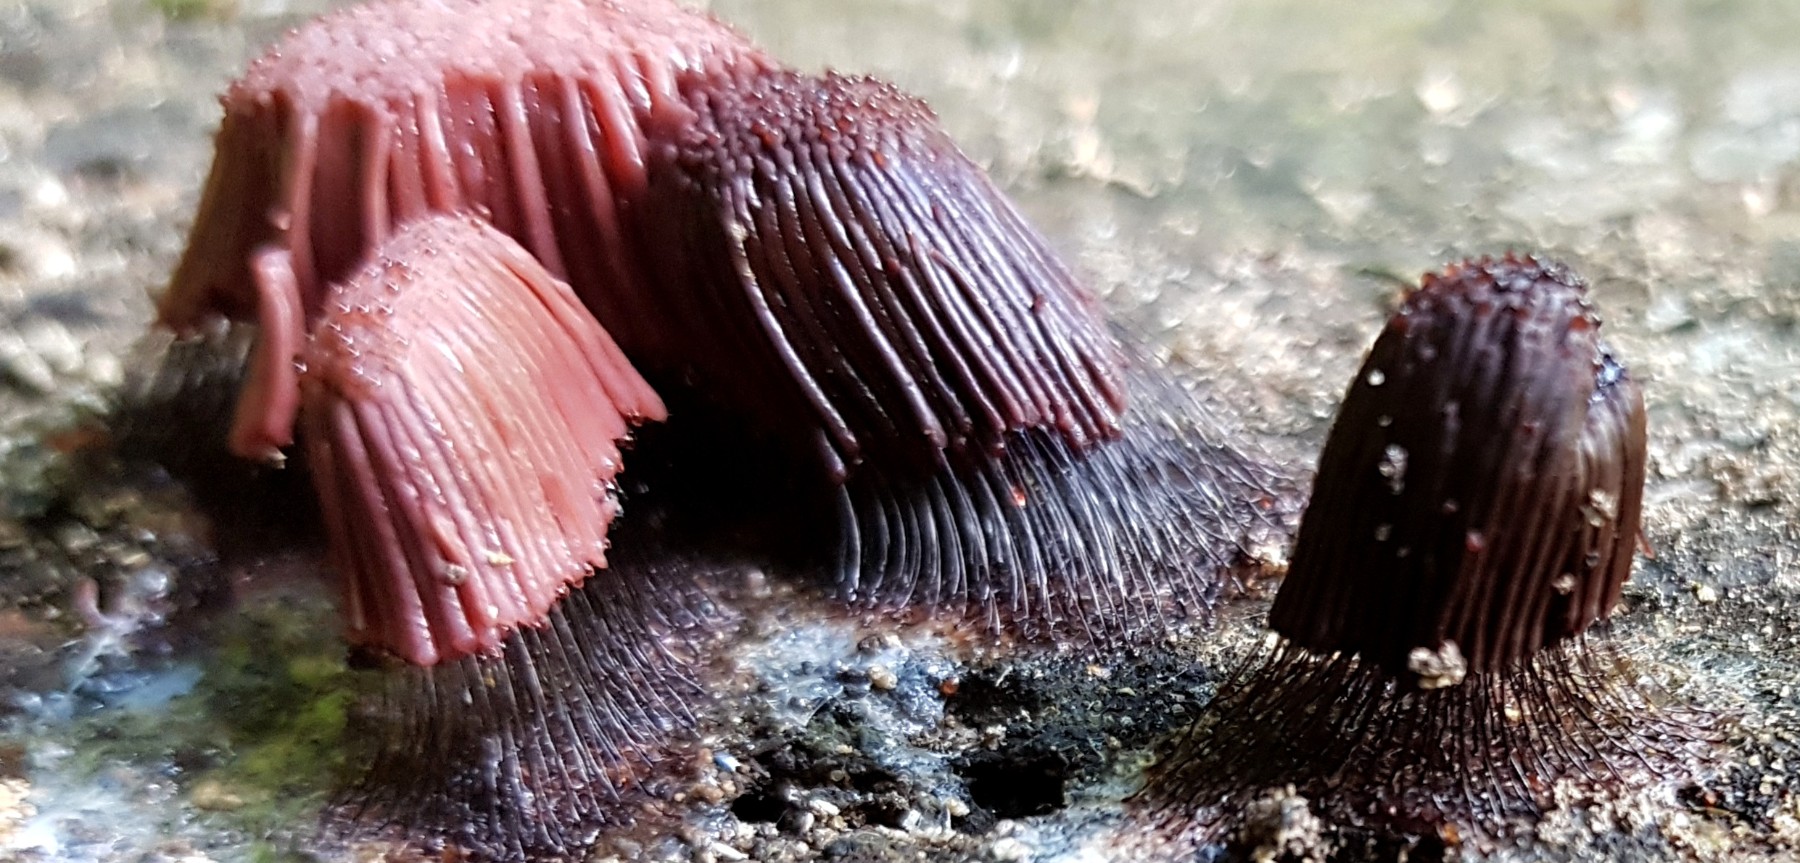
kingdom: Protozoa
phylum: Mycetozoa
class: Myxomycetes
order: Stemonitidales
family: Stemonitidaceae
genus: Stemonitis
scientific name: Stemonitis
